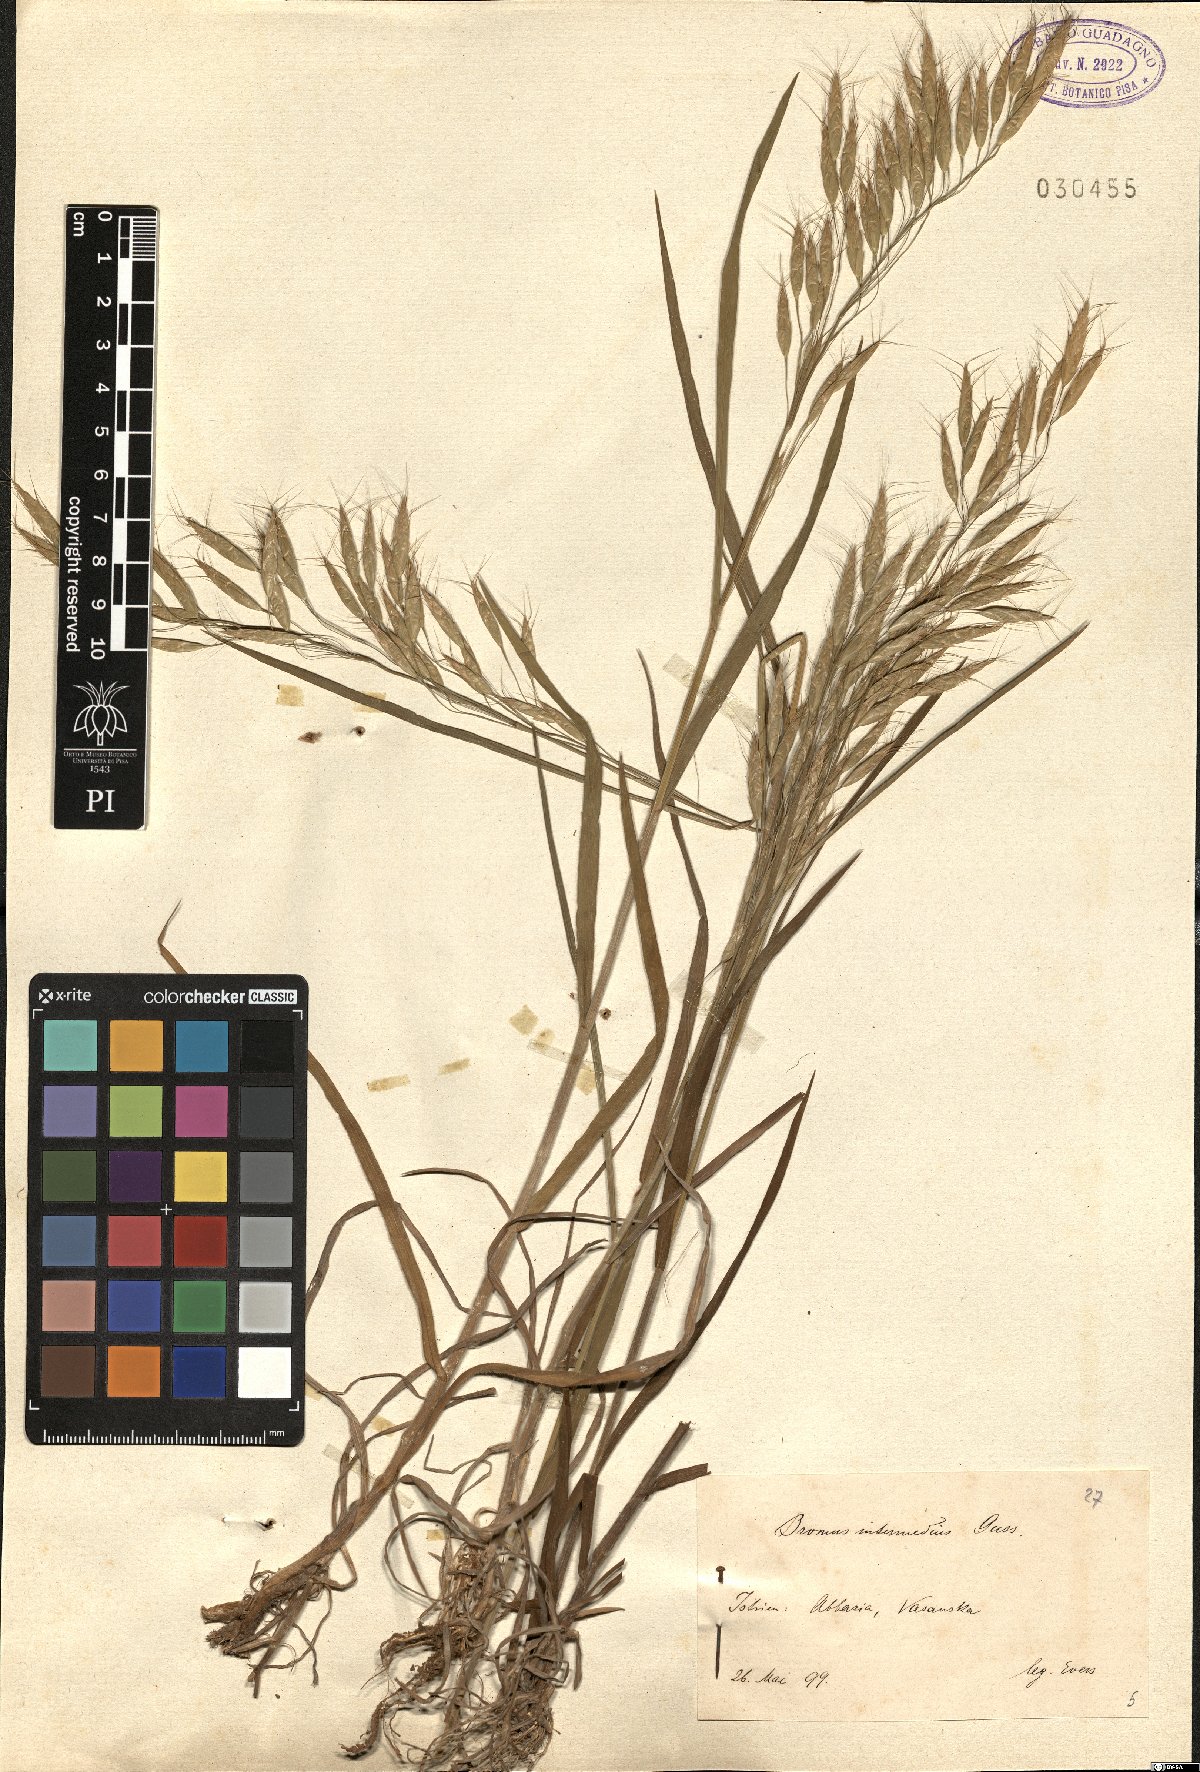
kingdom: Plantae
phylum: Tracheophyta
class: Liliopsida
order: Poales
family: Poaceae
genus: Bromus
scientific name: Bromus intermedius
